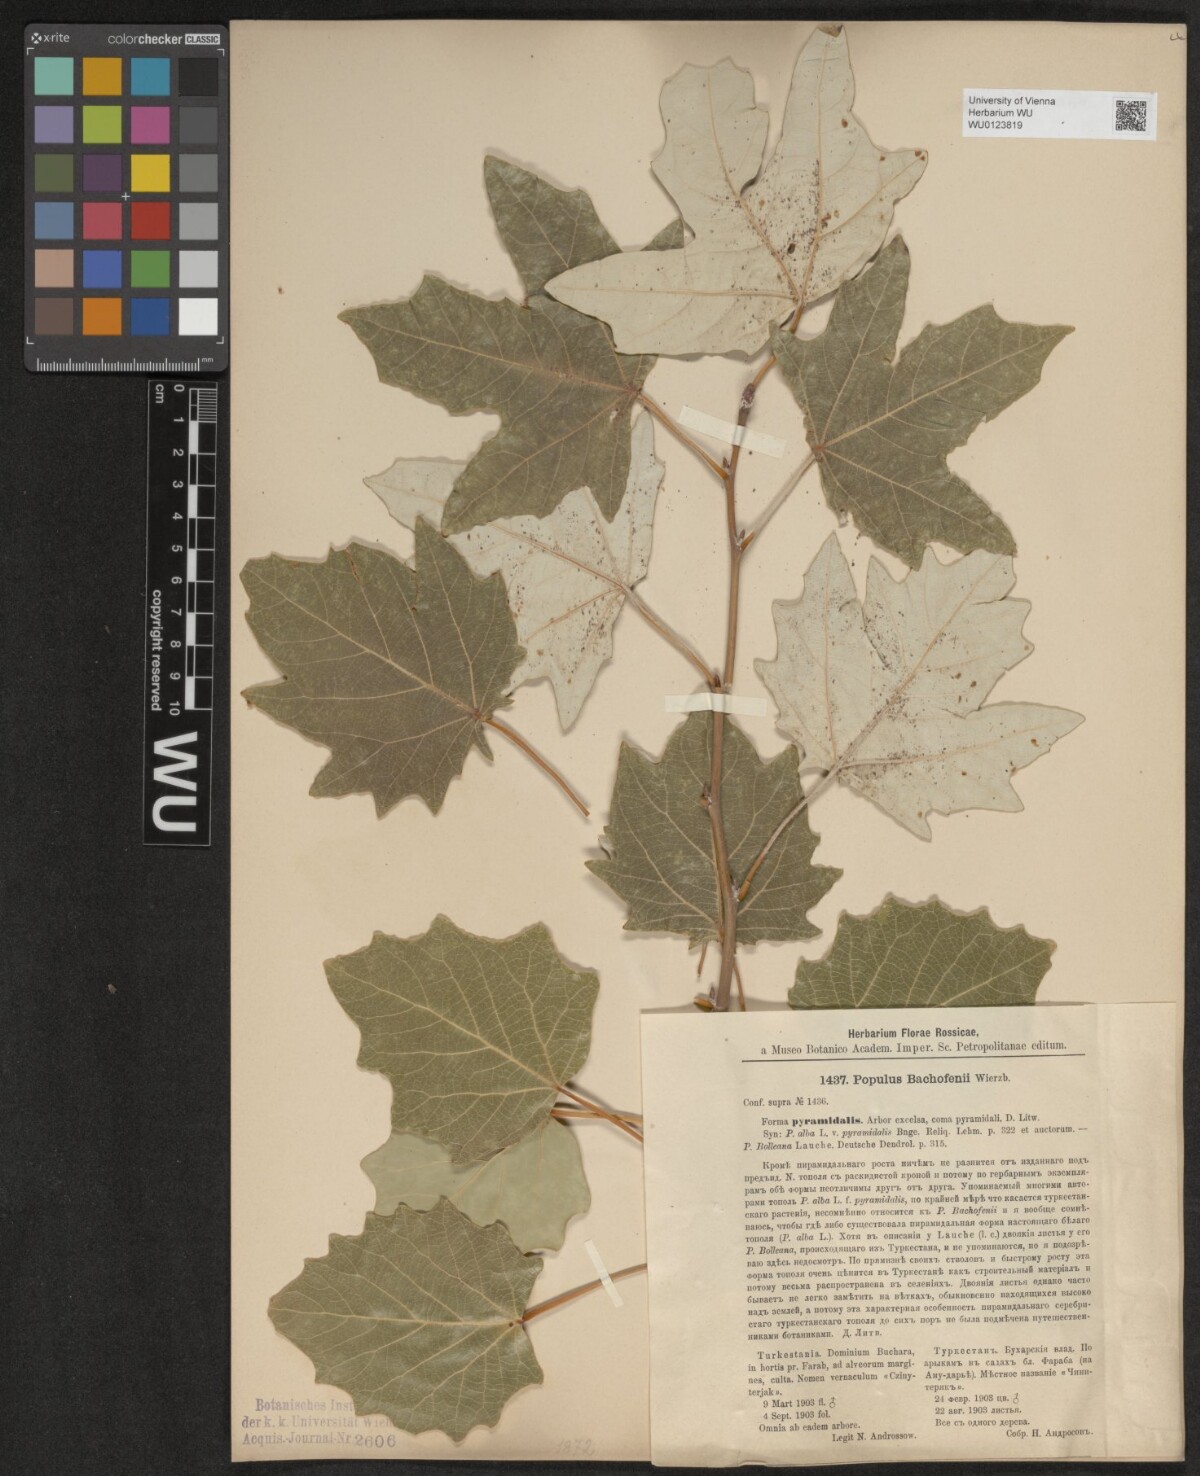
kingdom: Plantae
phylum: Tracheophyta
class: Magnoliopsida
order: Malpighiales
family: Salicaceae
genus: Populus
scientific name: Populus
